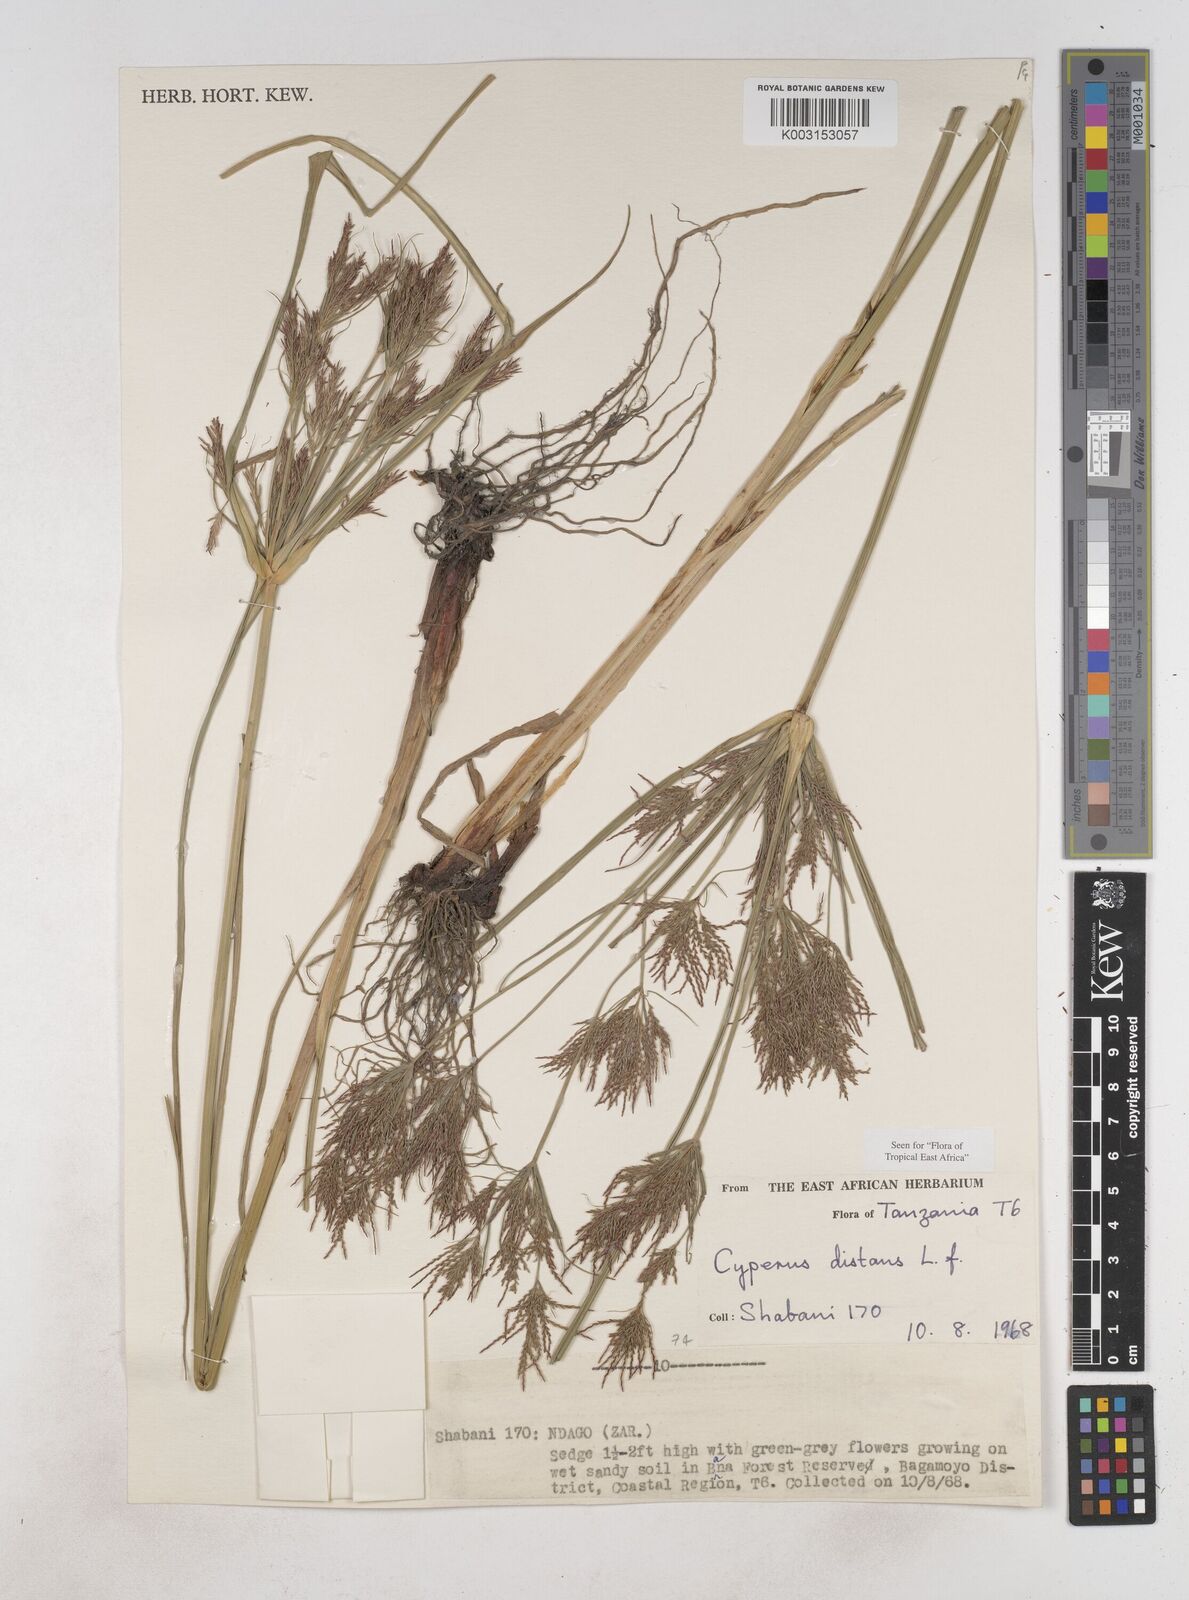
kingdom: Plantae
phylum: Tracheophyta
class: Liliopsida
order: Poales
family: Cyperaceae
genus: Cyperus
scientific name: Cyperus distans
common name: Slender cyperus
